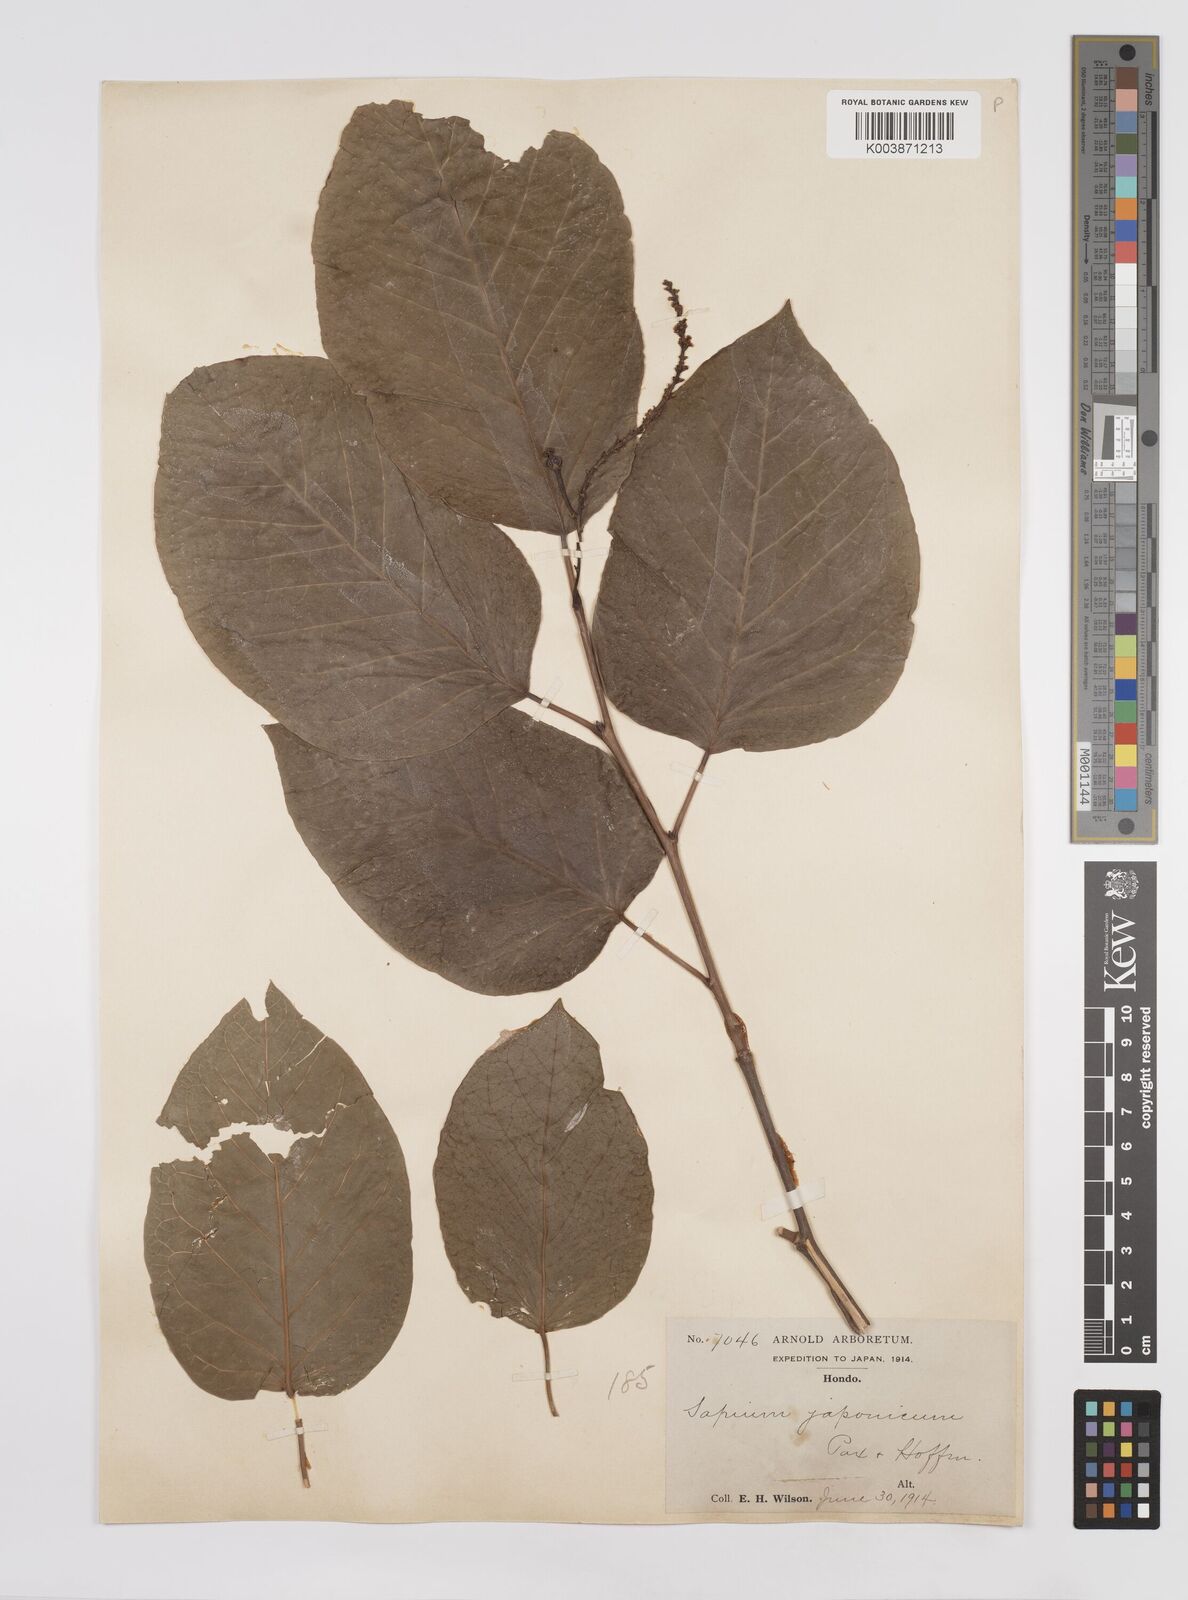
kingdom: Plantae
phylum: Tracheophyta
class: Magnoliopsida
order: Malpighiales
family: Euphorbiaceae
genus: Neoshirakia
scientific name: Neoshirakia japonica
